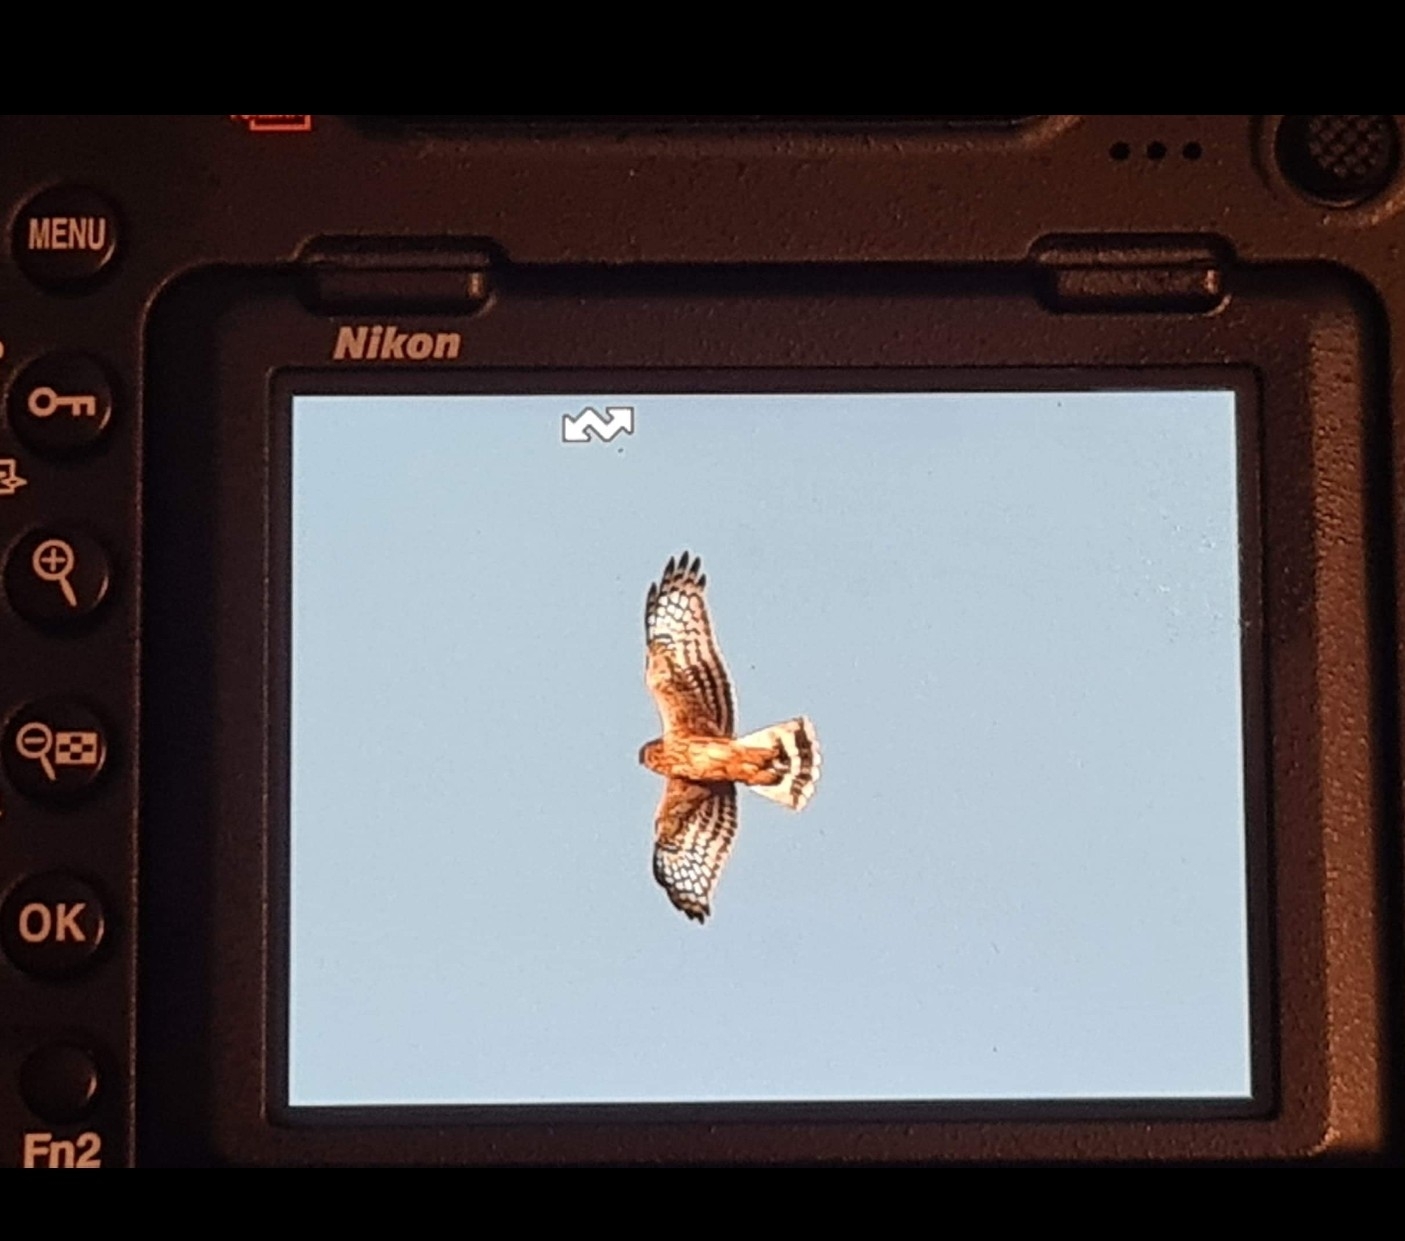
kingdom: Animalia
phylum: Chordata
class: Aves
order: Accipitriformes
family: Accipitridae
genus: Circus
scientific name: Circus cyaneus
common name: Blå kærhøg
